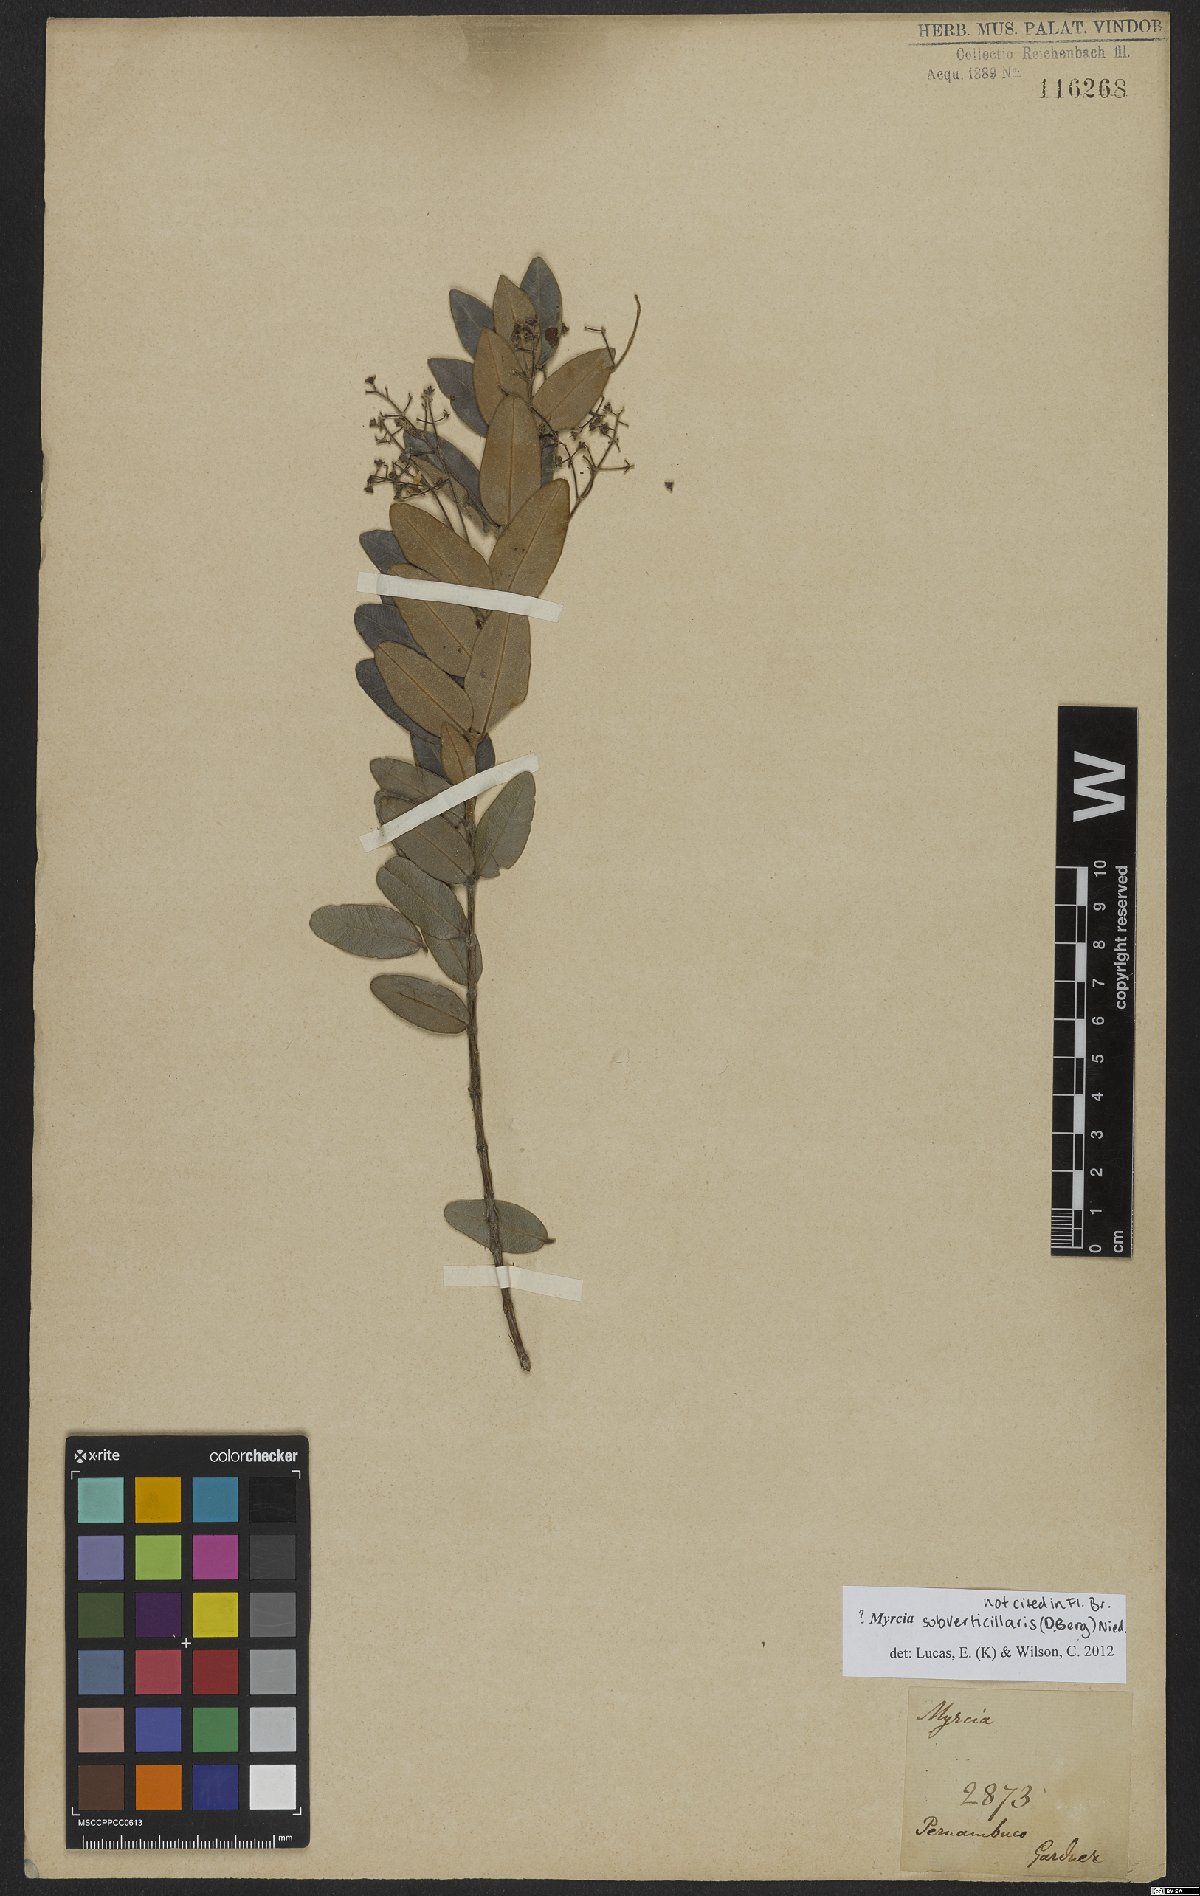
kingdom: Plantae
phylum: Tracheophyta
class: Magnoliopsida
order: Myrtales
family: Myrtaceae
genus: Myrcia
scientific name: Myrcia subverticillaris
